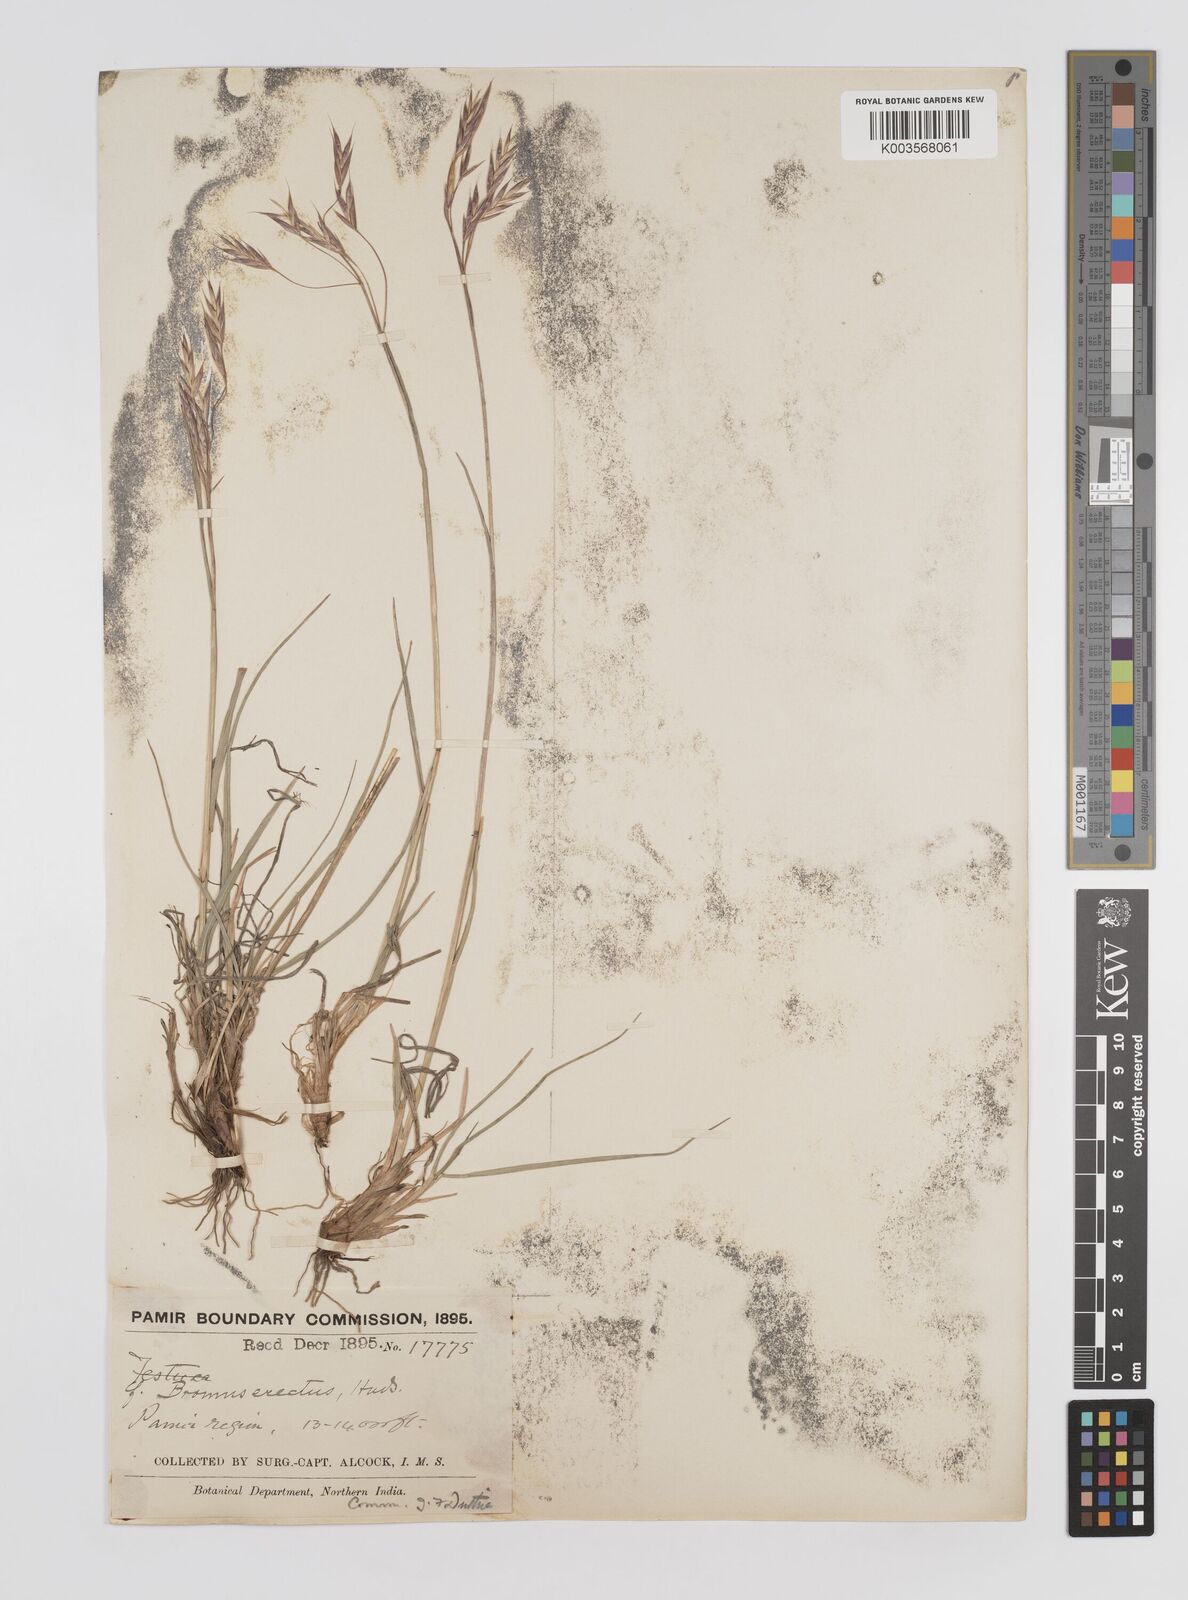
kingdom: Plantae
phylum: Tracheophyta
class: Liliopsida
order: Poales
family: Poaceae
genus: Bromus
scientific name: Bromus erectus
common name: Erect brome
